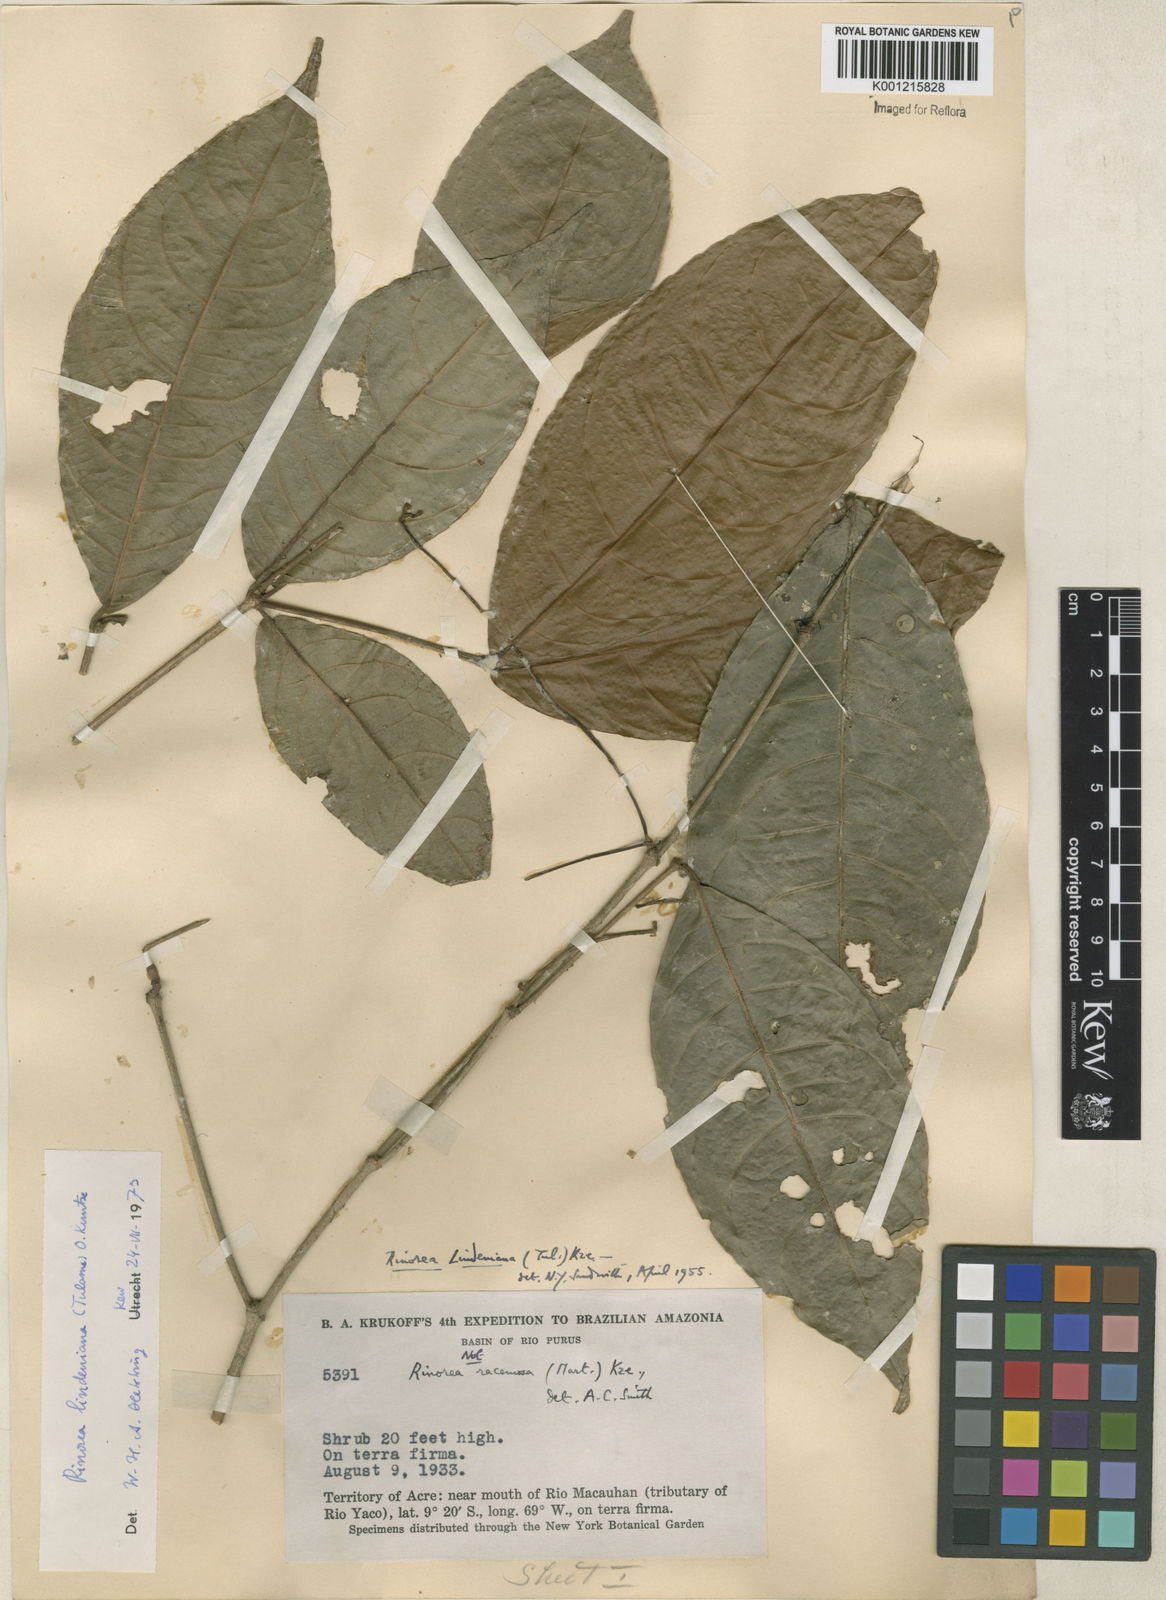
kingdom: Plantae
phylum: Tracheophyta
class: Magnoliopsida
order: Malpighiales
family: Violaceae
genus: Rinorea
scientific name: Rinorea lindeniana
